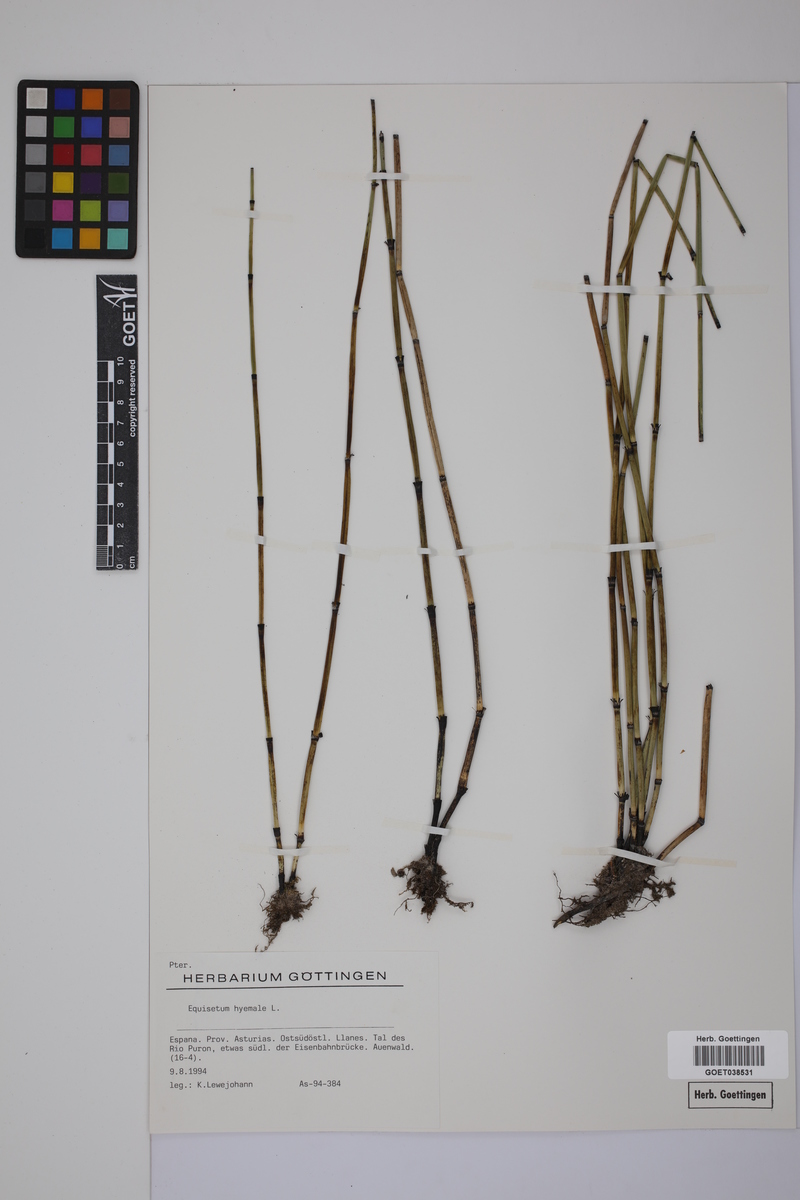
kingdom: Plantae
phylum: Tracheophyta
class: Polypodiopsida
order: Equisetales
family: Equisetaceae
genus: Equisetum
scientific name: Equisetum hyemale
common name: Rough horsetail
